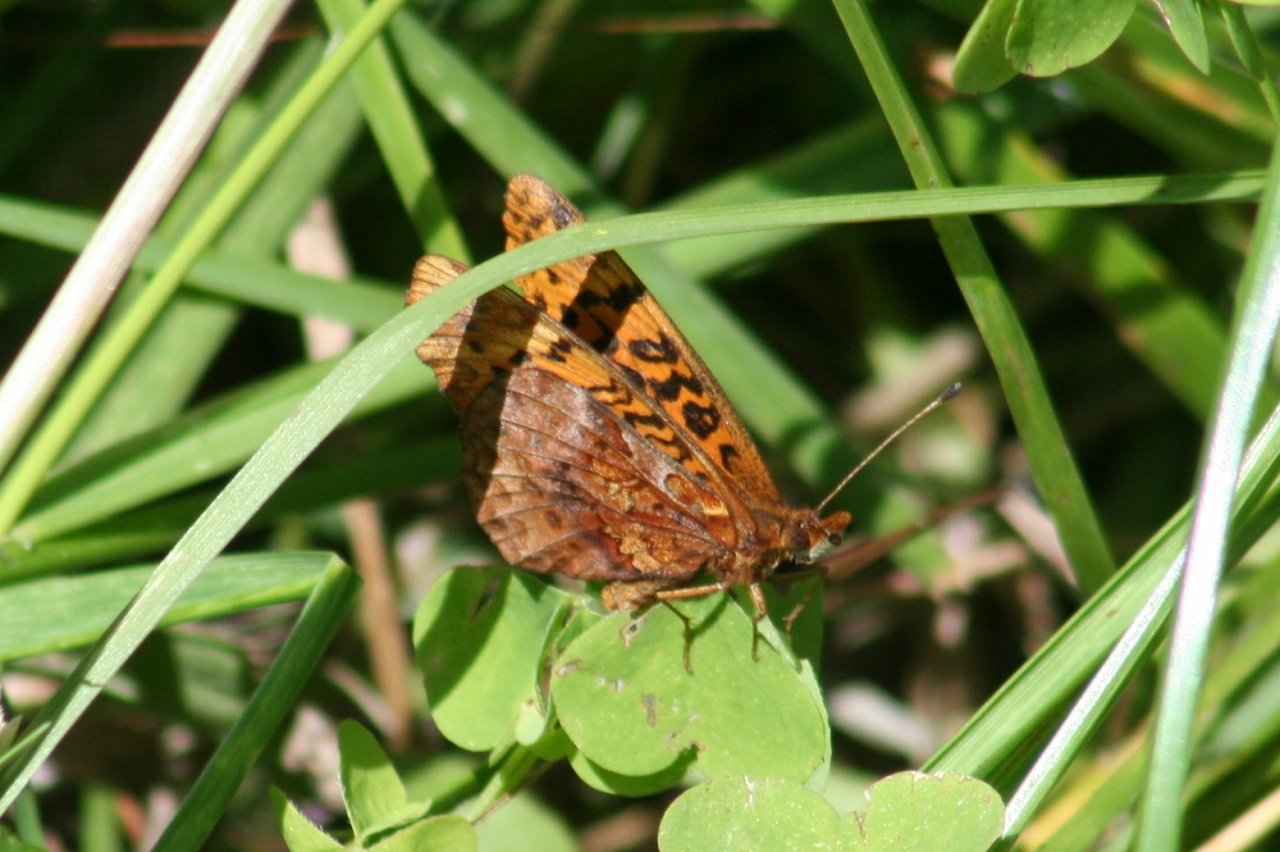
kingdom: Animalia
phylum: Arthropoda
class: Insecta
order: Lepidoptera
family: Nymphalidae
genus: Clossiana
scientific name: Clossiana toddi
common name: Meadow Fritillary
